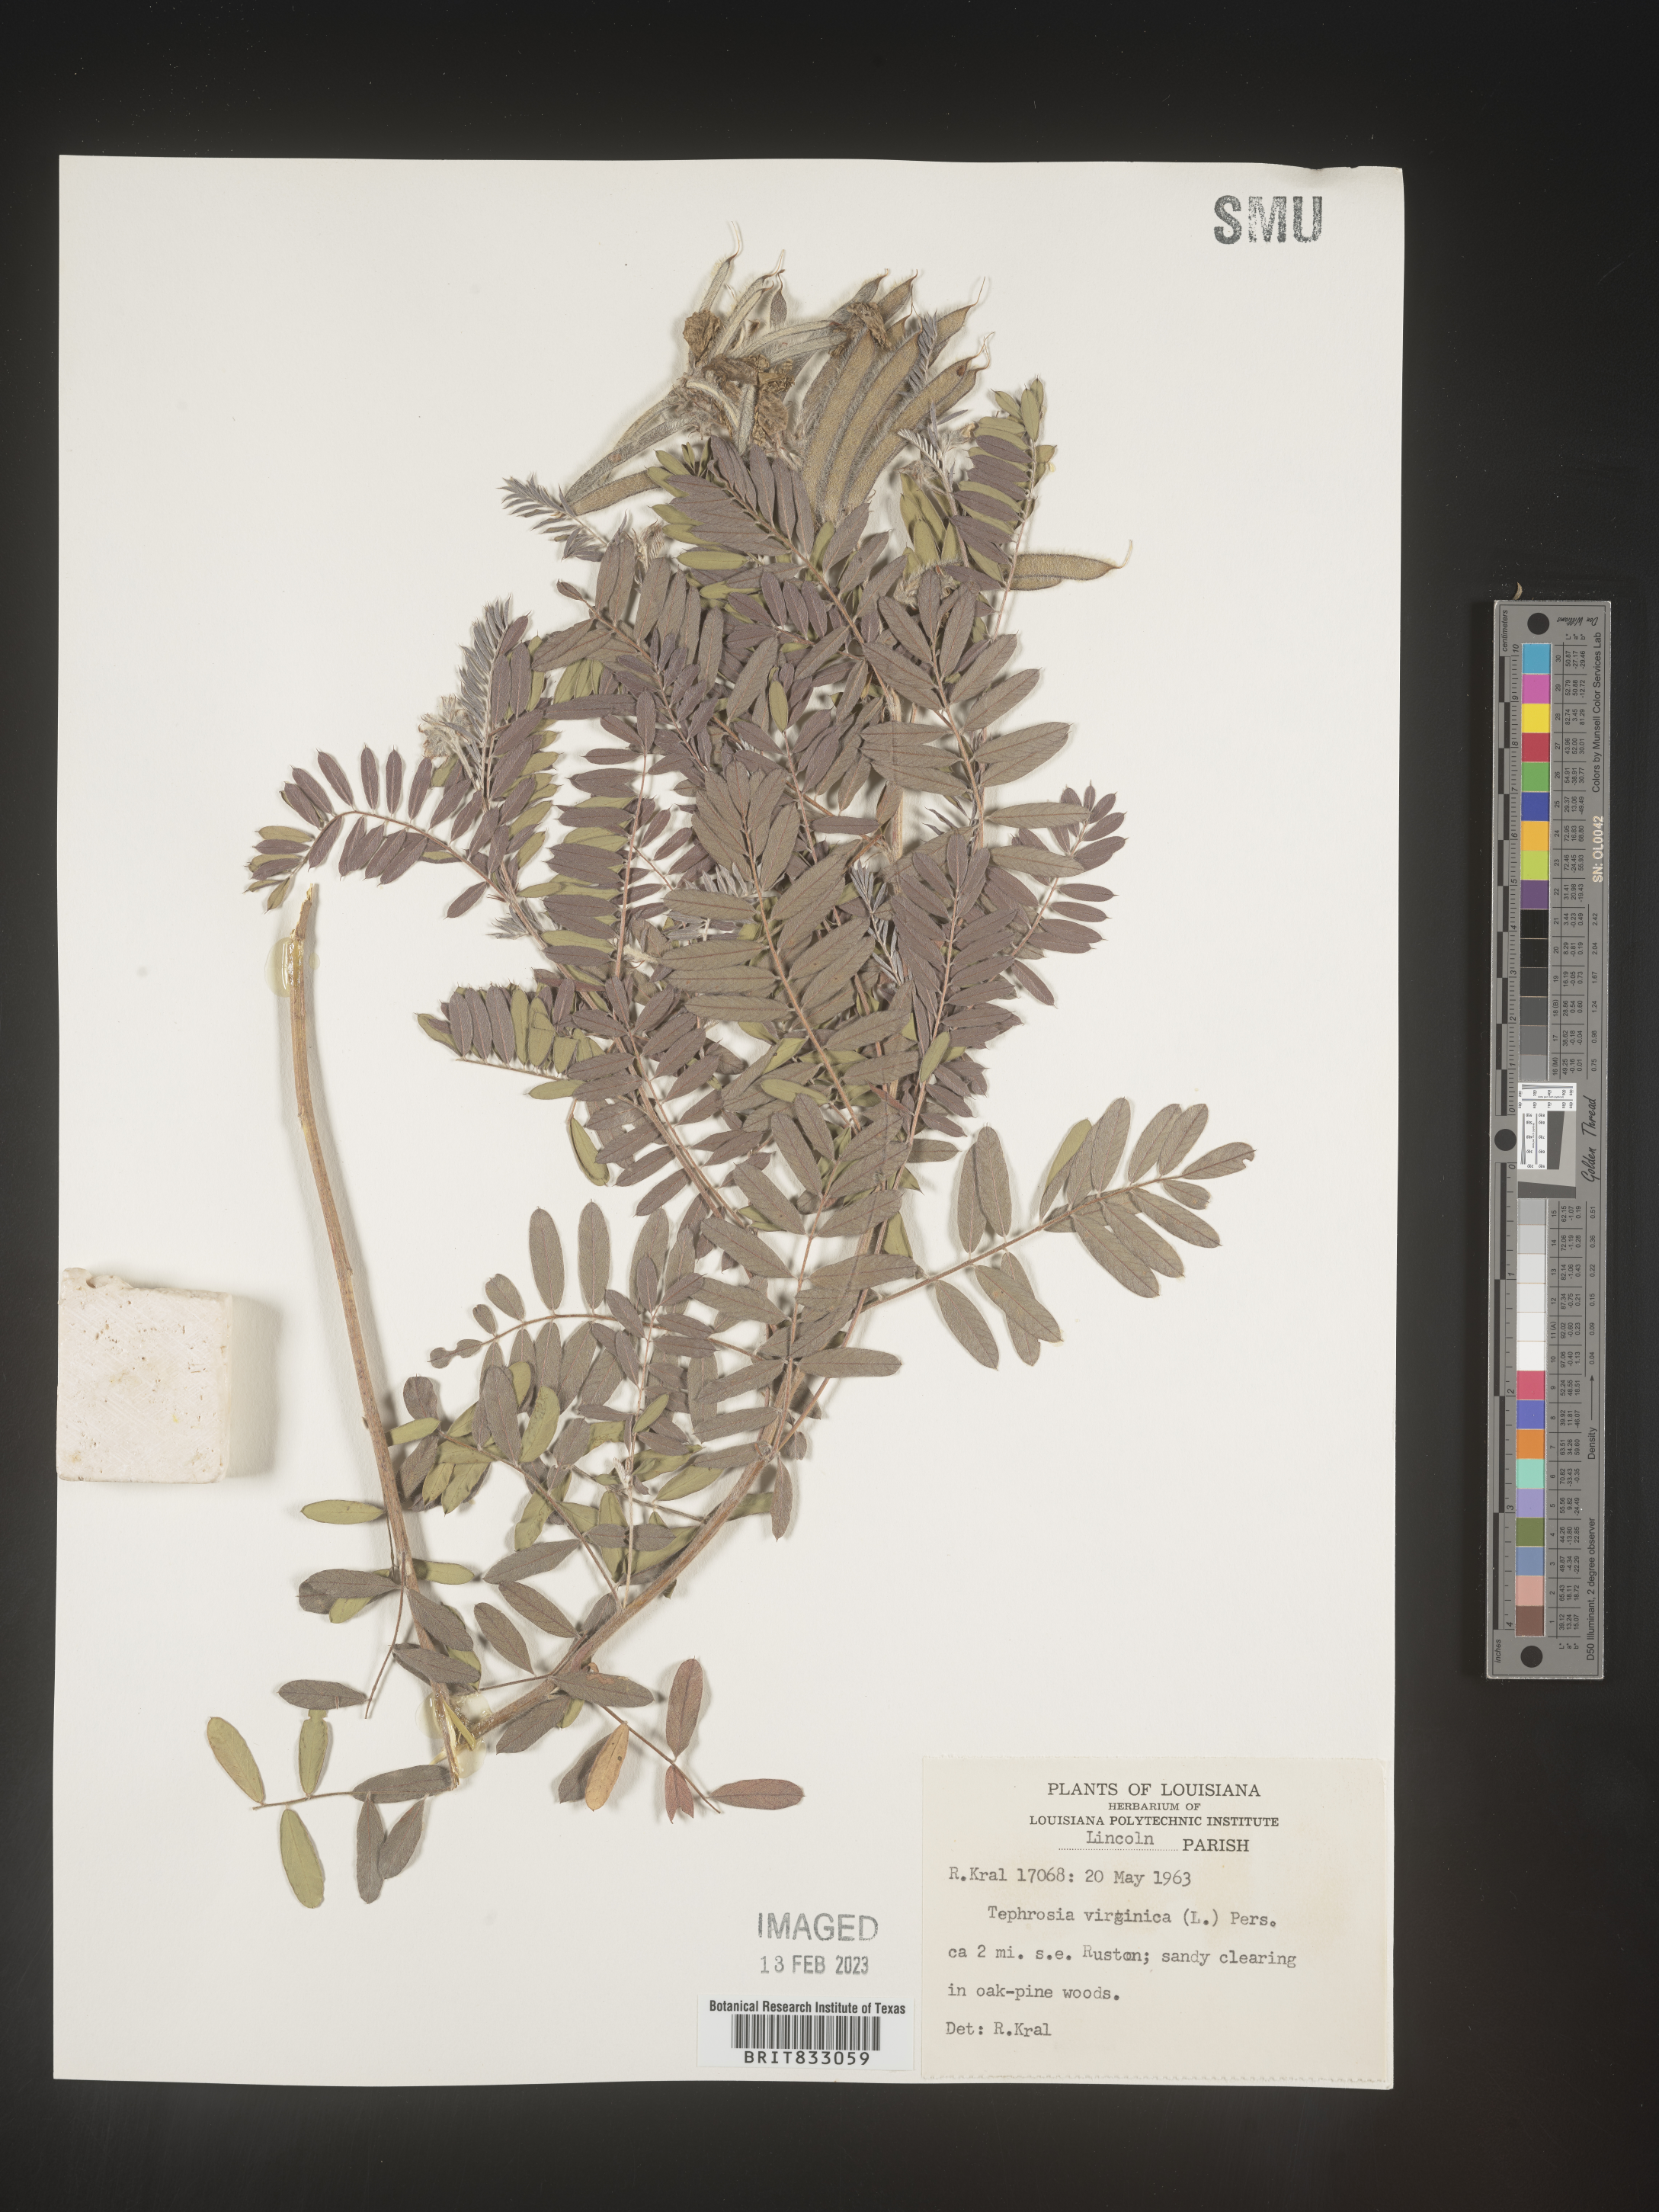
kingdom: Plantae
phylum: Tracheophyta
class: Magnoliopsida
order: Fabales
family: Fabaceae
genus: Tephrosia
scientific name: Tephrosia virginiana
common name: Rabbit-pea
